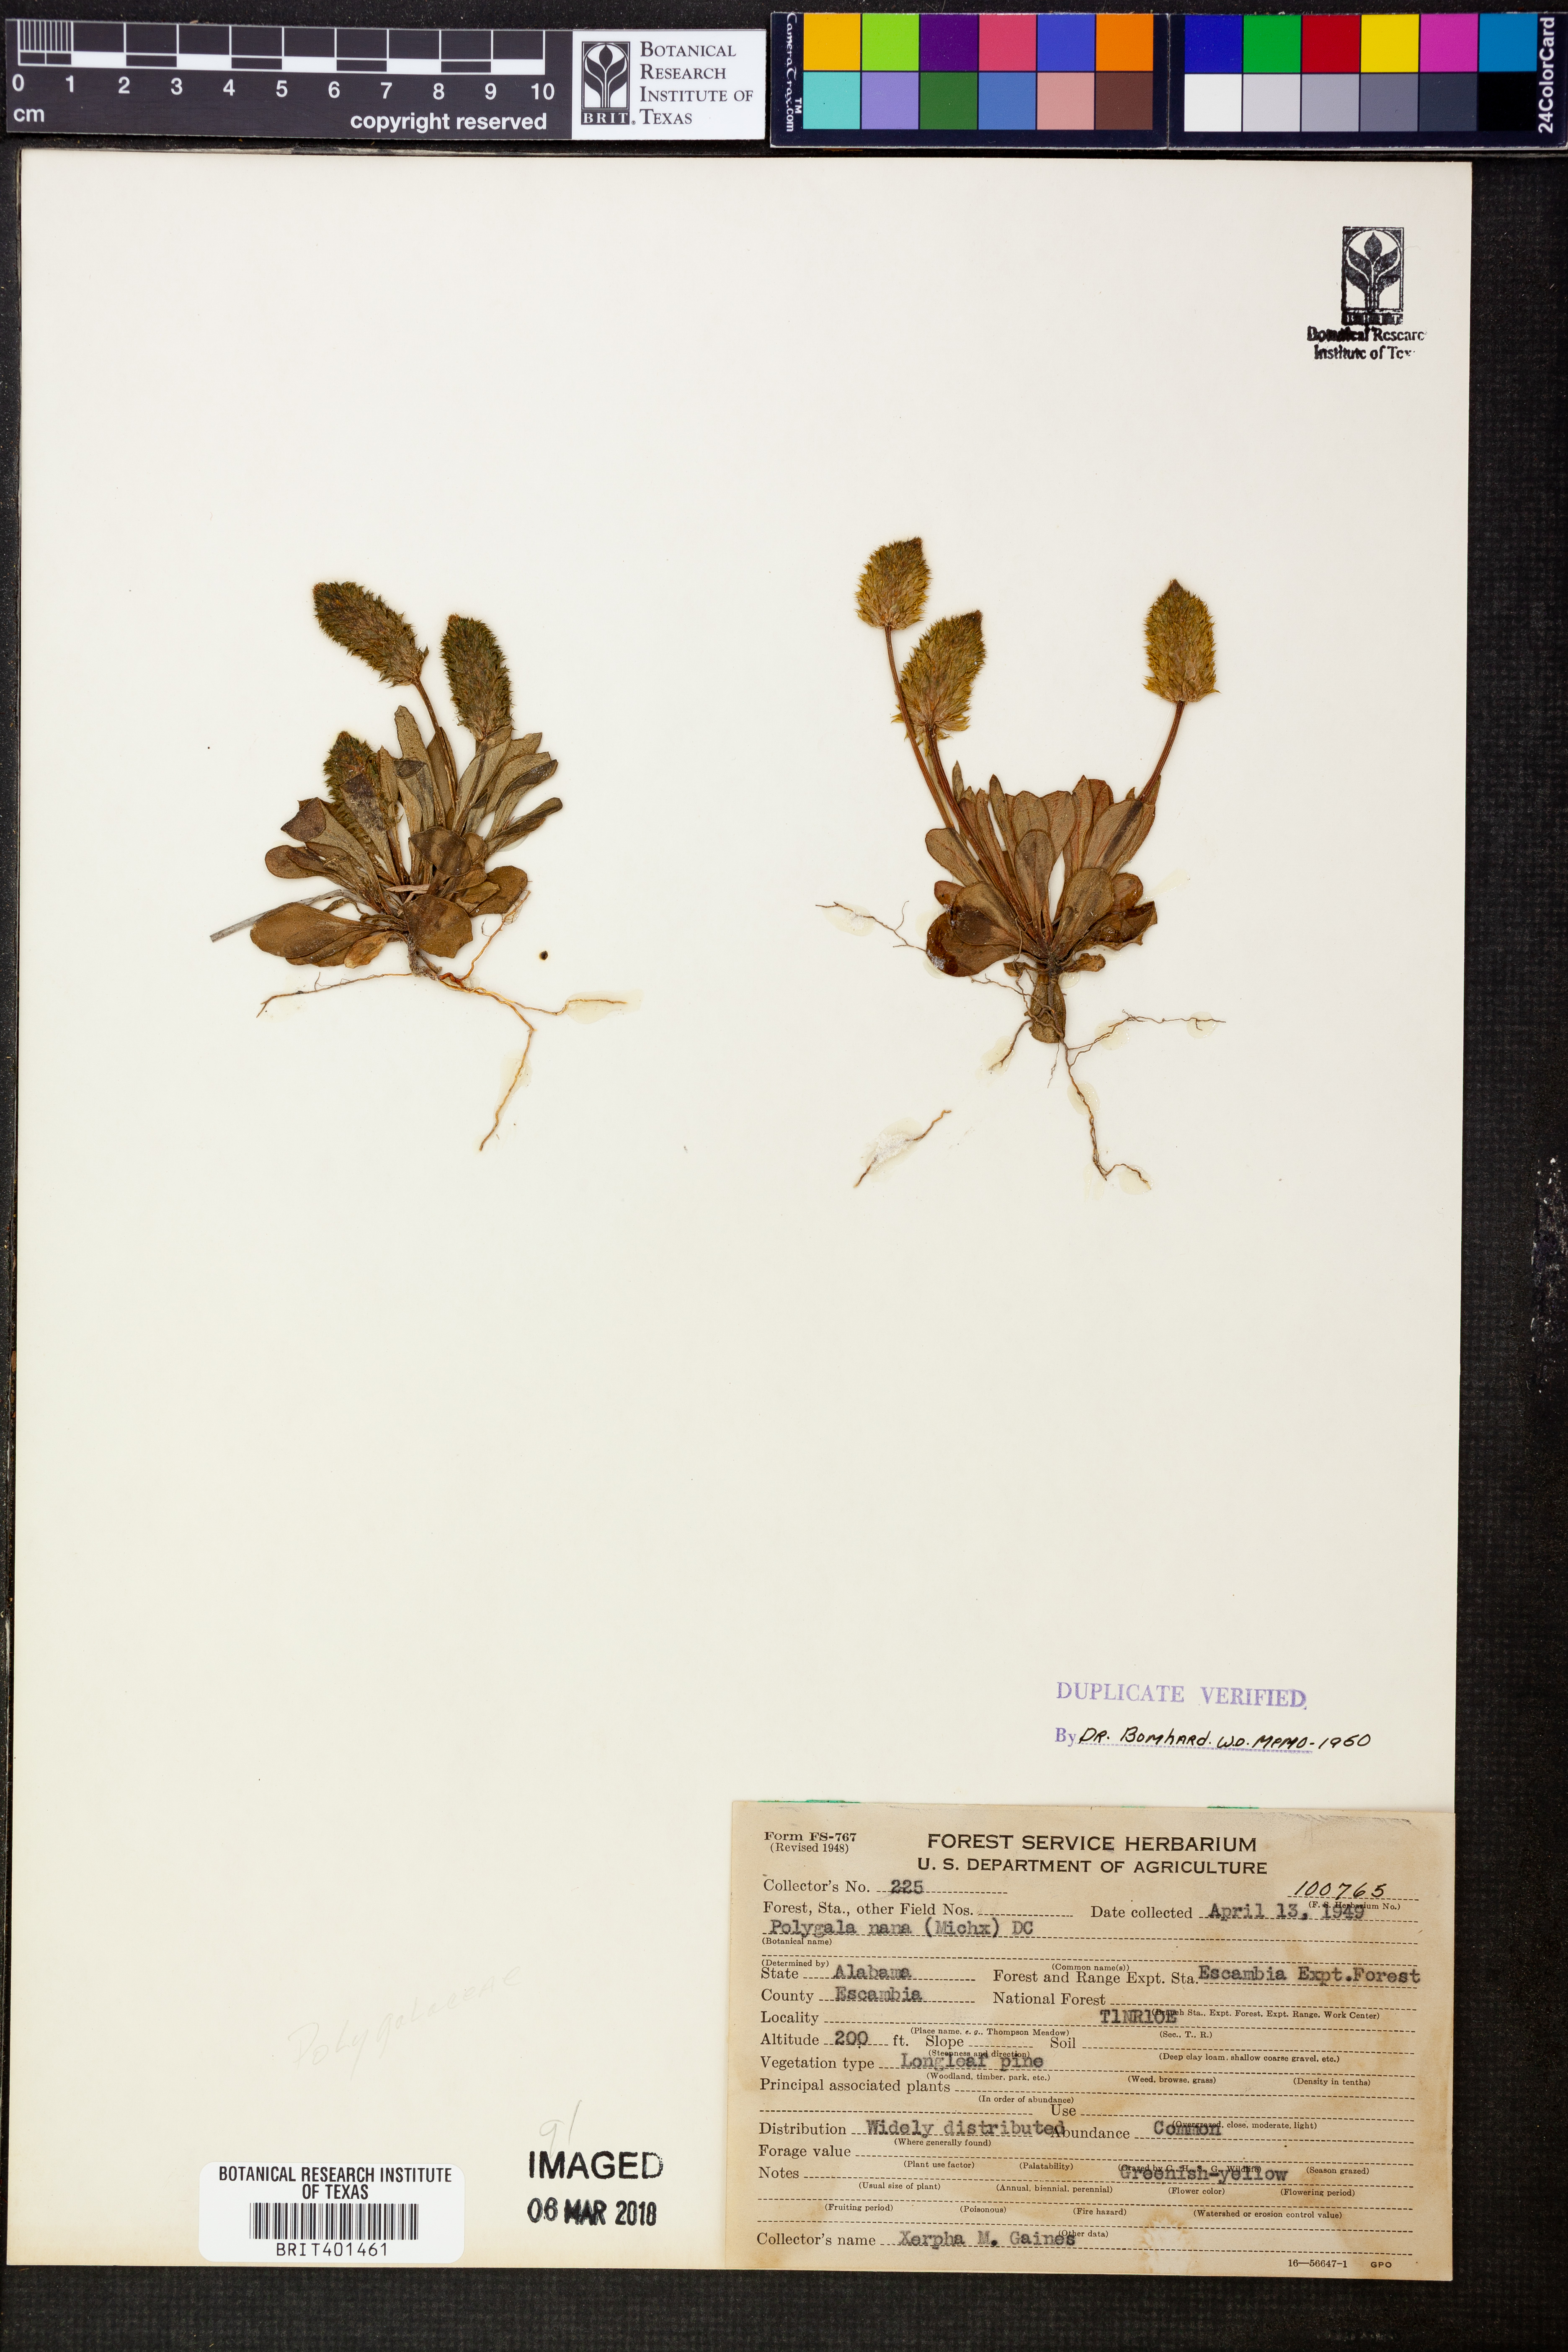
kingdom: Plantae
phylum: Tracheophyta
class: Magnoliopsida
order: Fabales
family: Polygalaceae
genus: Polygala
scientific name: Polygala nana
